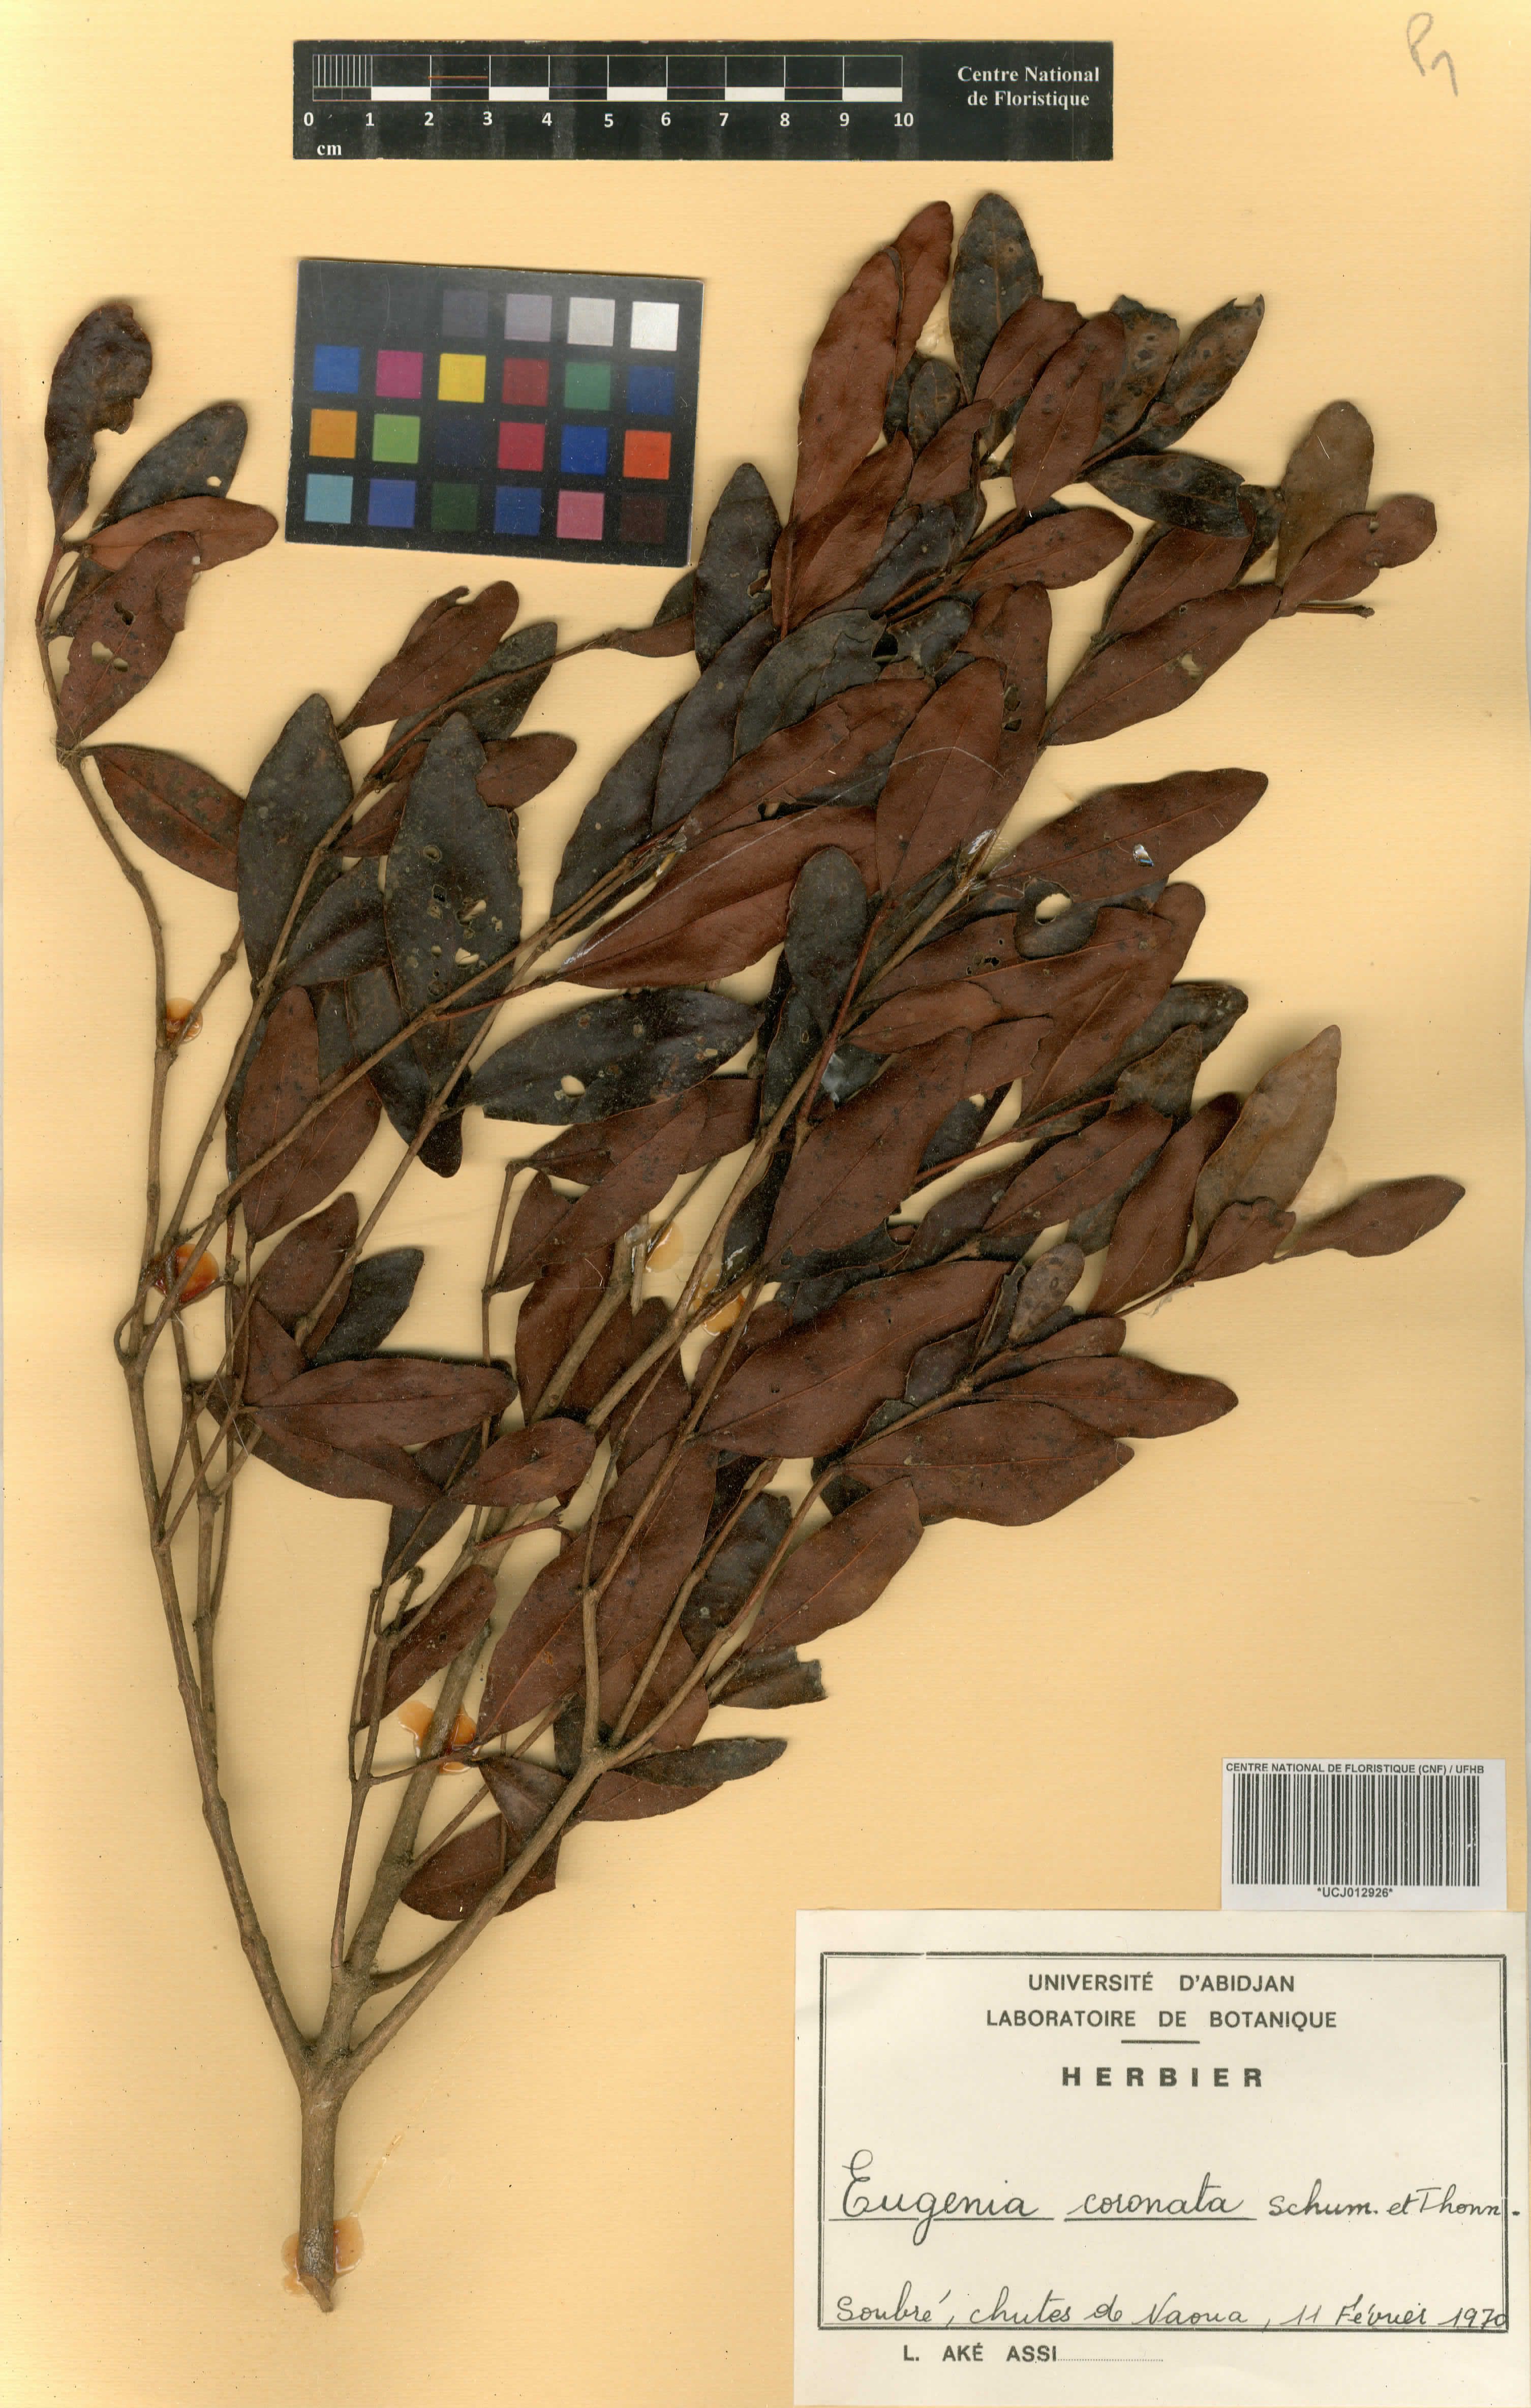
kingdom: Plantae
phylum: Tracheophyta
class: Magnoliopsida
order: Myrtales
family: Myrtaceae
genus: Eugenia
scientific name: Eugenia coronata
